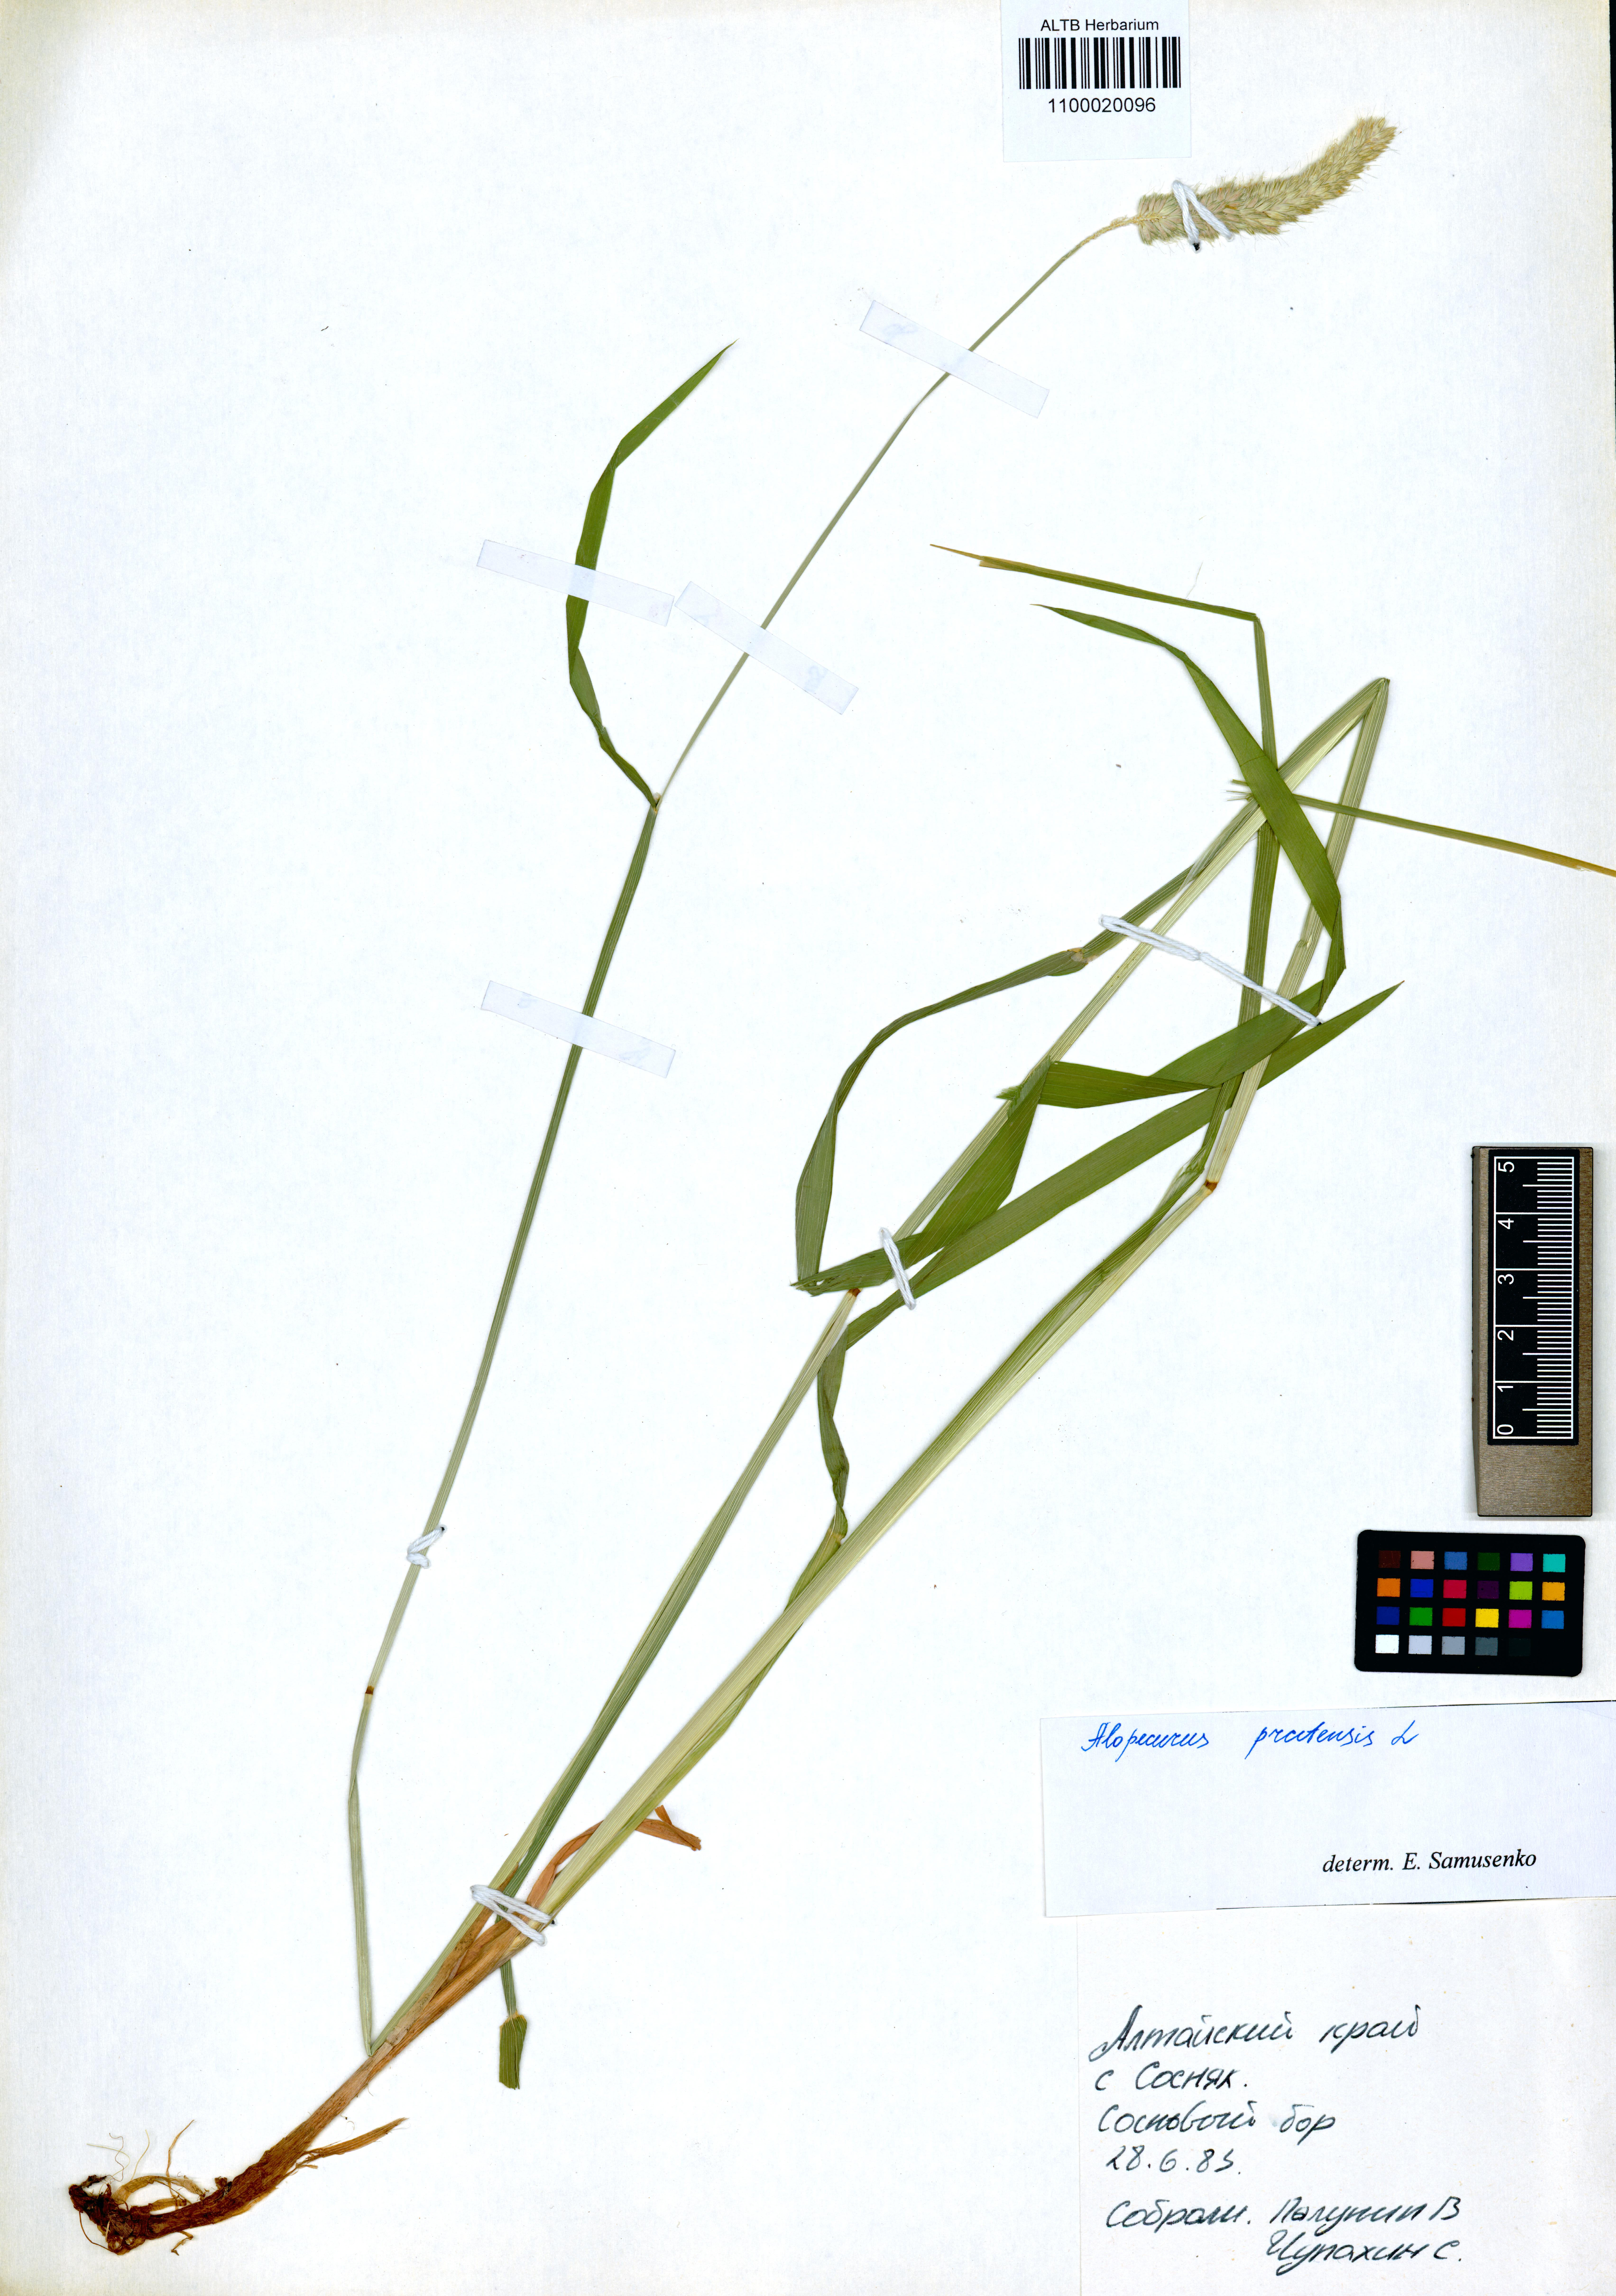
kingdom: Plantae
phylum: Tracheophyta
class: Liliopsida
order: Poales
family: Poaceae
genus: Alopecurus
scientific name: Alopecurus pratensis
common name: Meadow foxtail
